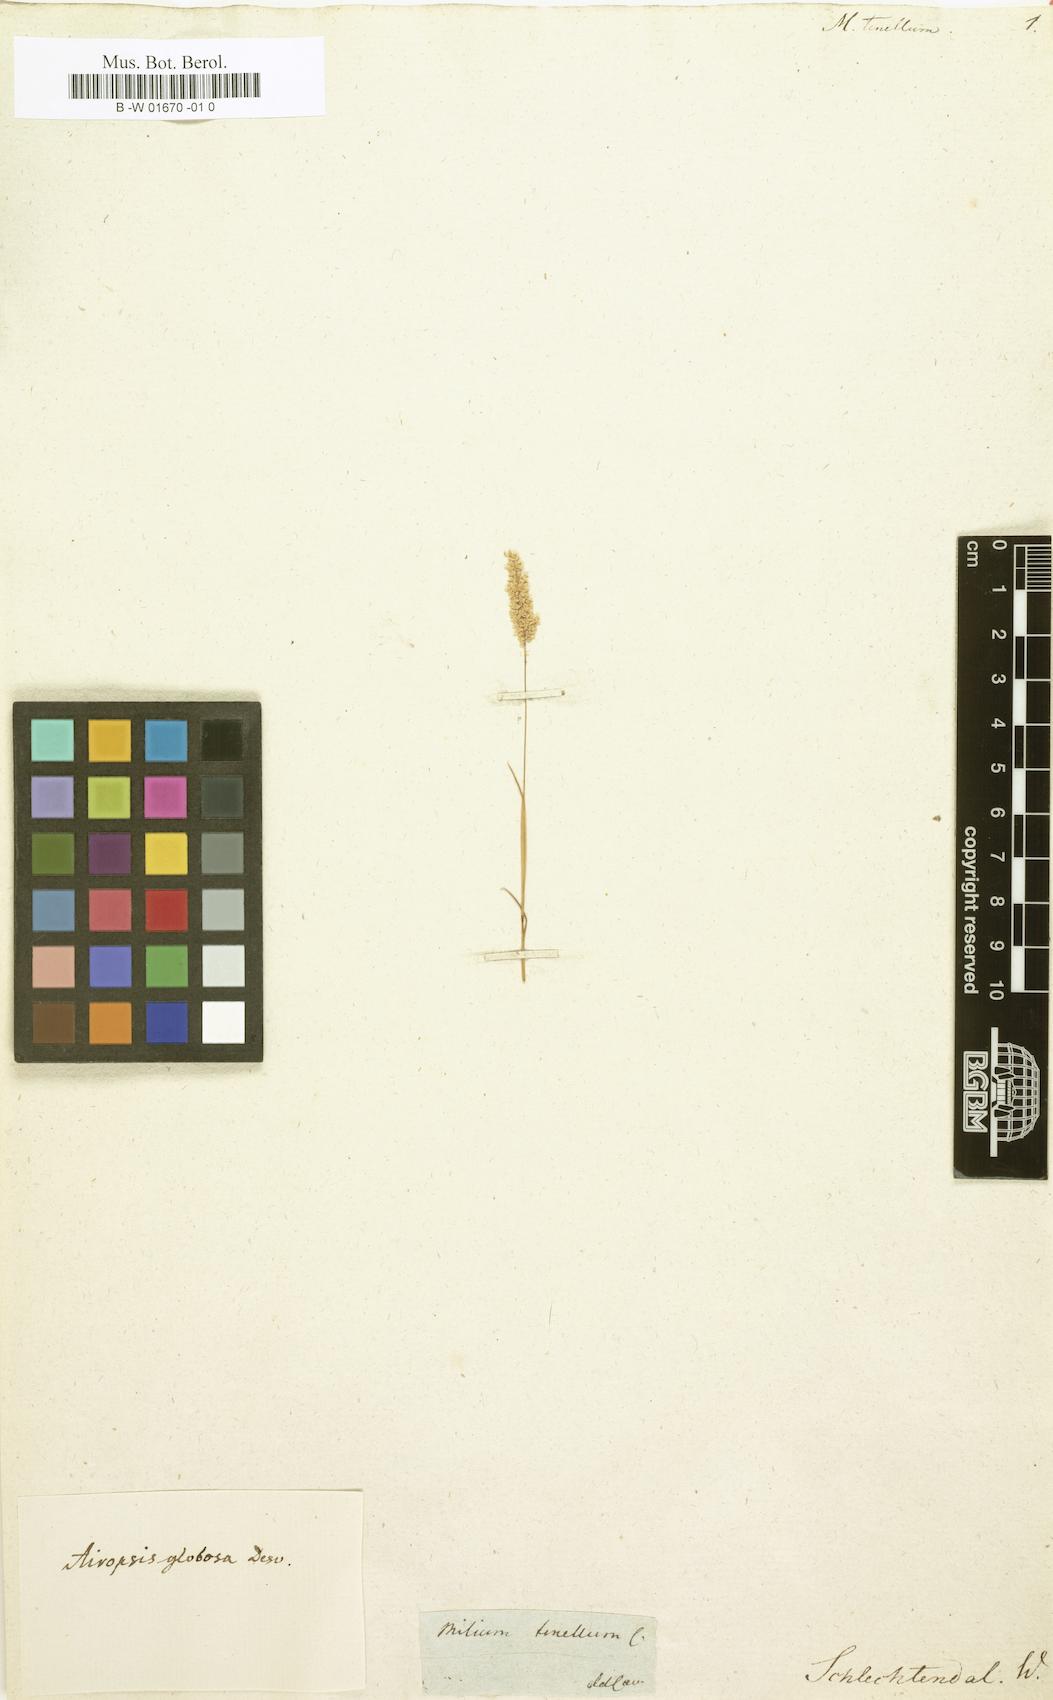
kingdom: Plantae
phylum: Tracheophyta
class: Liliopsida
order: Poales
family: Poaceae
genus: Airopsis
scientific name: Airopsis tenella
